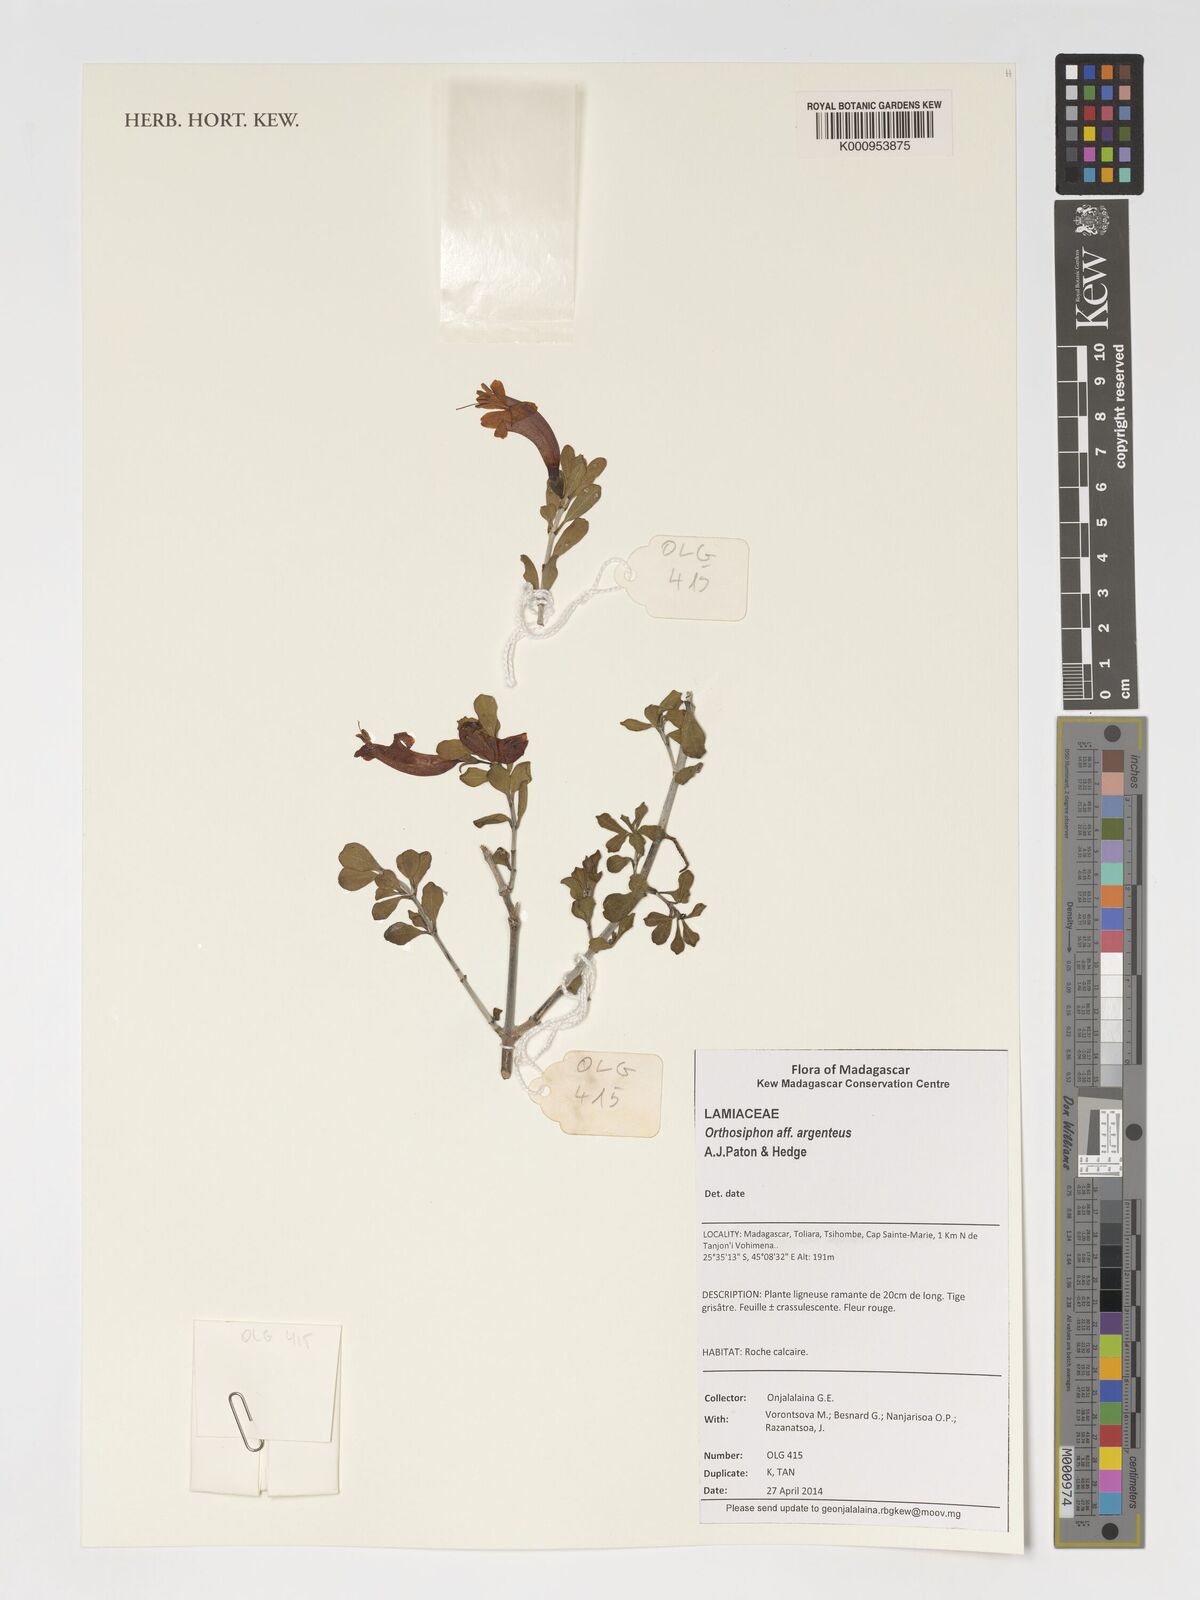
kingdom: Plantae
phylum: Tracheophyta
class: Magnoliopsida
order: Lamiales
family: Lamiaceae
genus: Orthosiphon
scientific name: Orthosiphon argenteus
